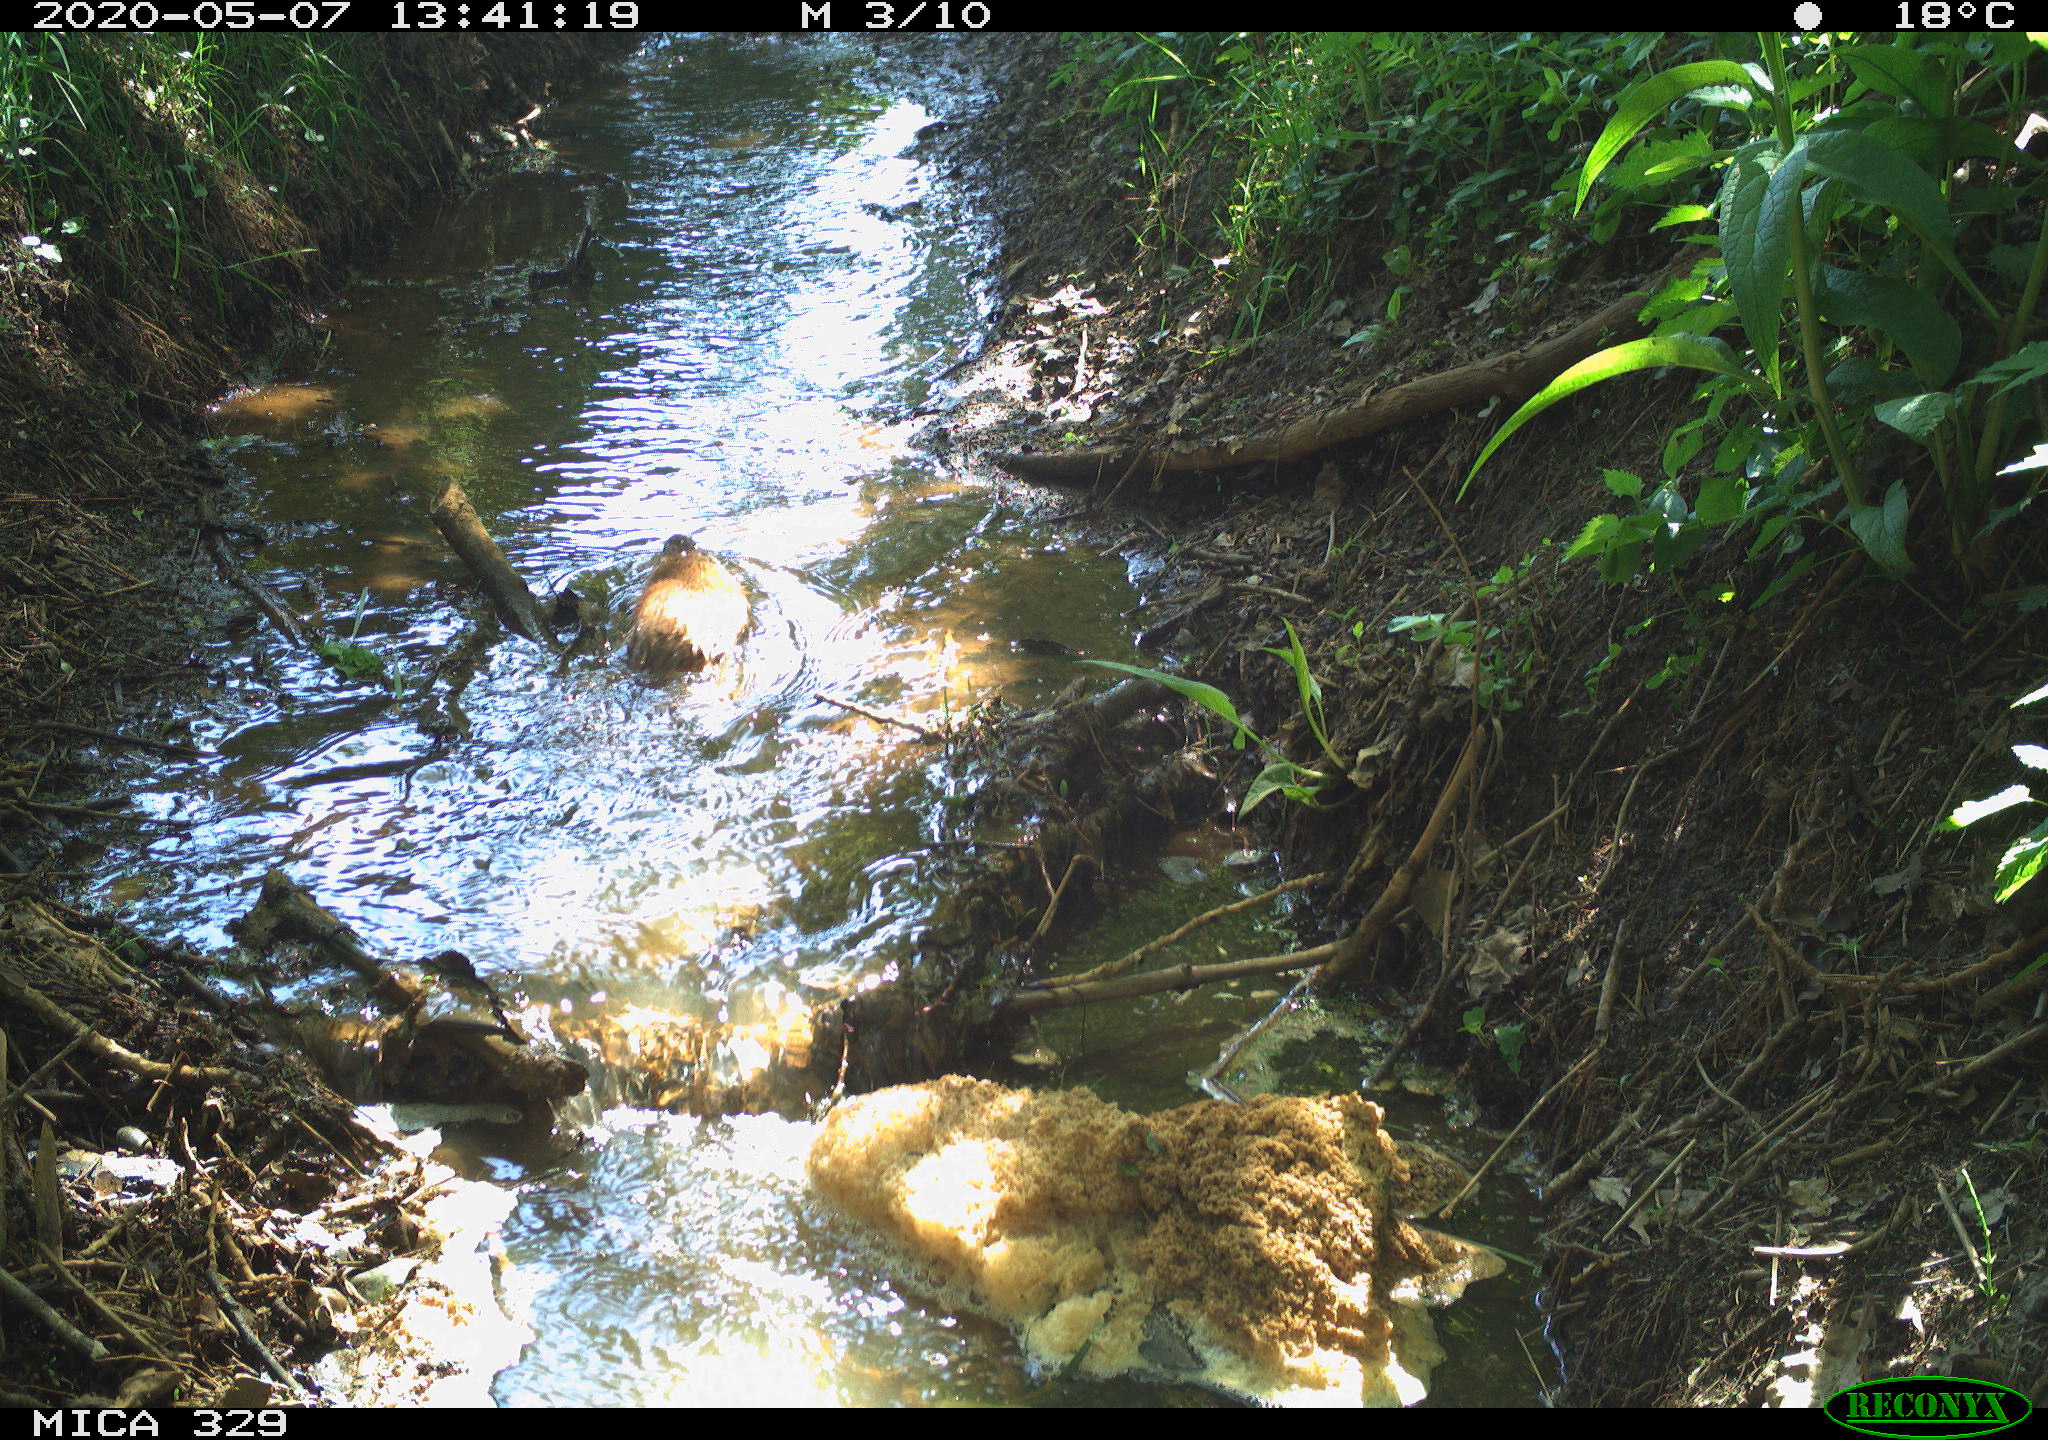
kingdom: Animalia
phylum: Chordata
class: Mammalia
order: Rodentia
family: Cricetidae
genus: Ondatra
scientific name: Ondatra zibethicus
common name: Muskrat
